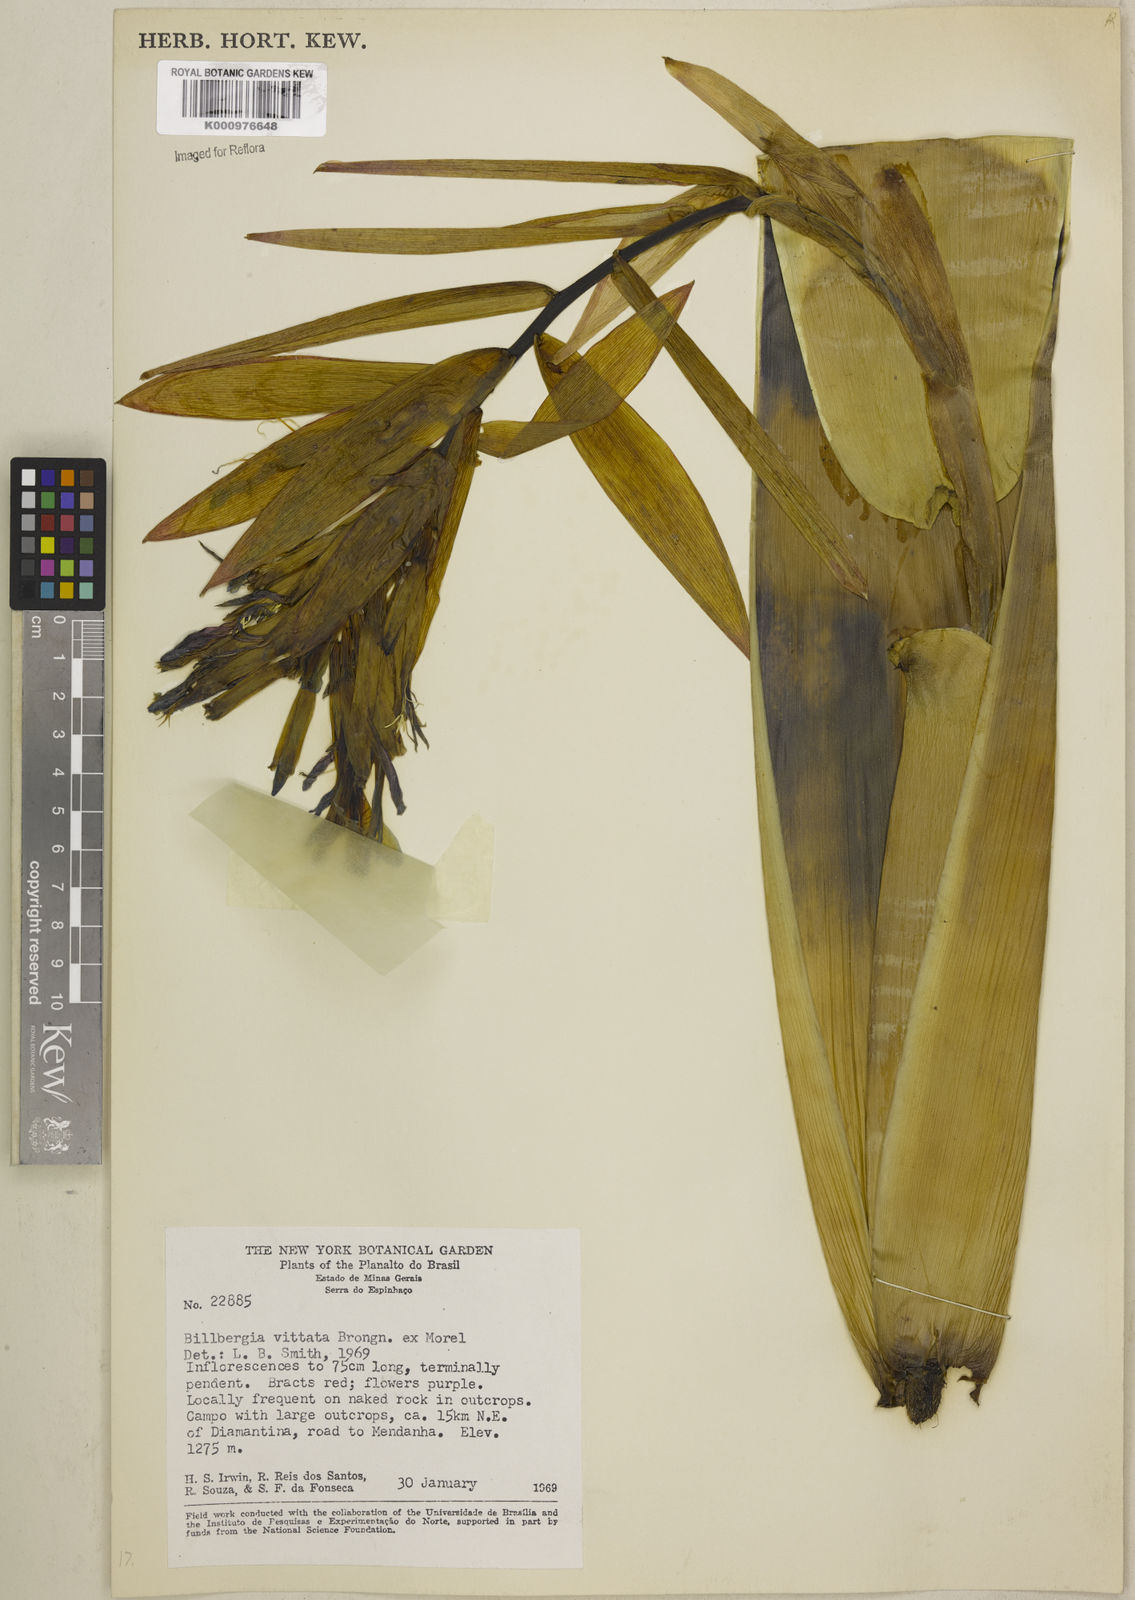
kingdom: Plantae
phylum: Tracheophyta
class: Liliopsida
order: Poales
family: Bromeliaceae
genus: Billbergia
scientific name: Billbergia vittata
